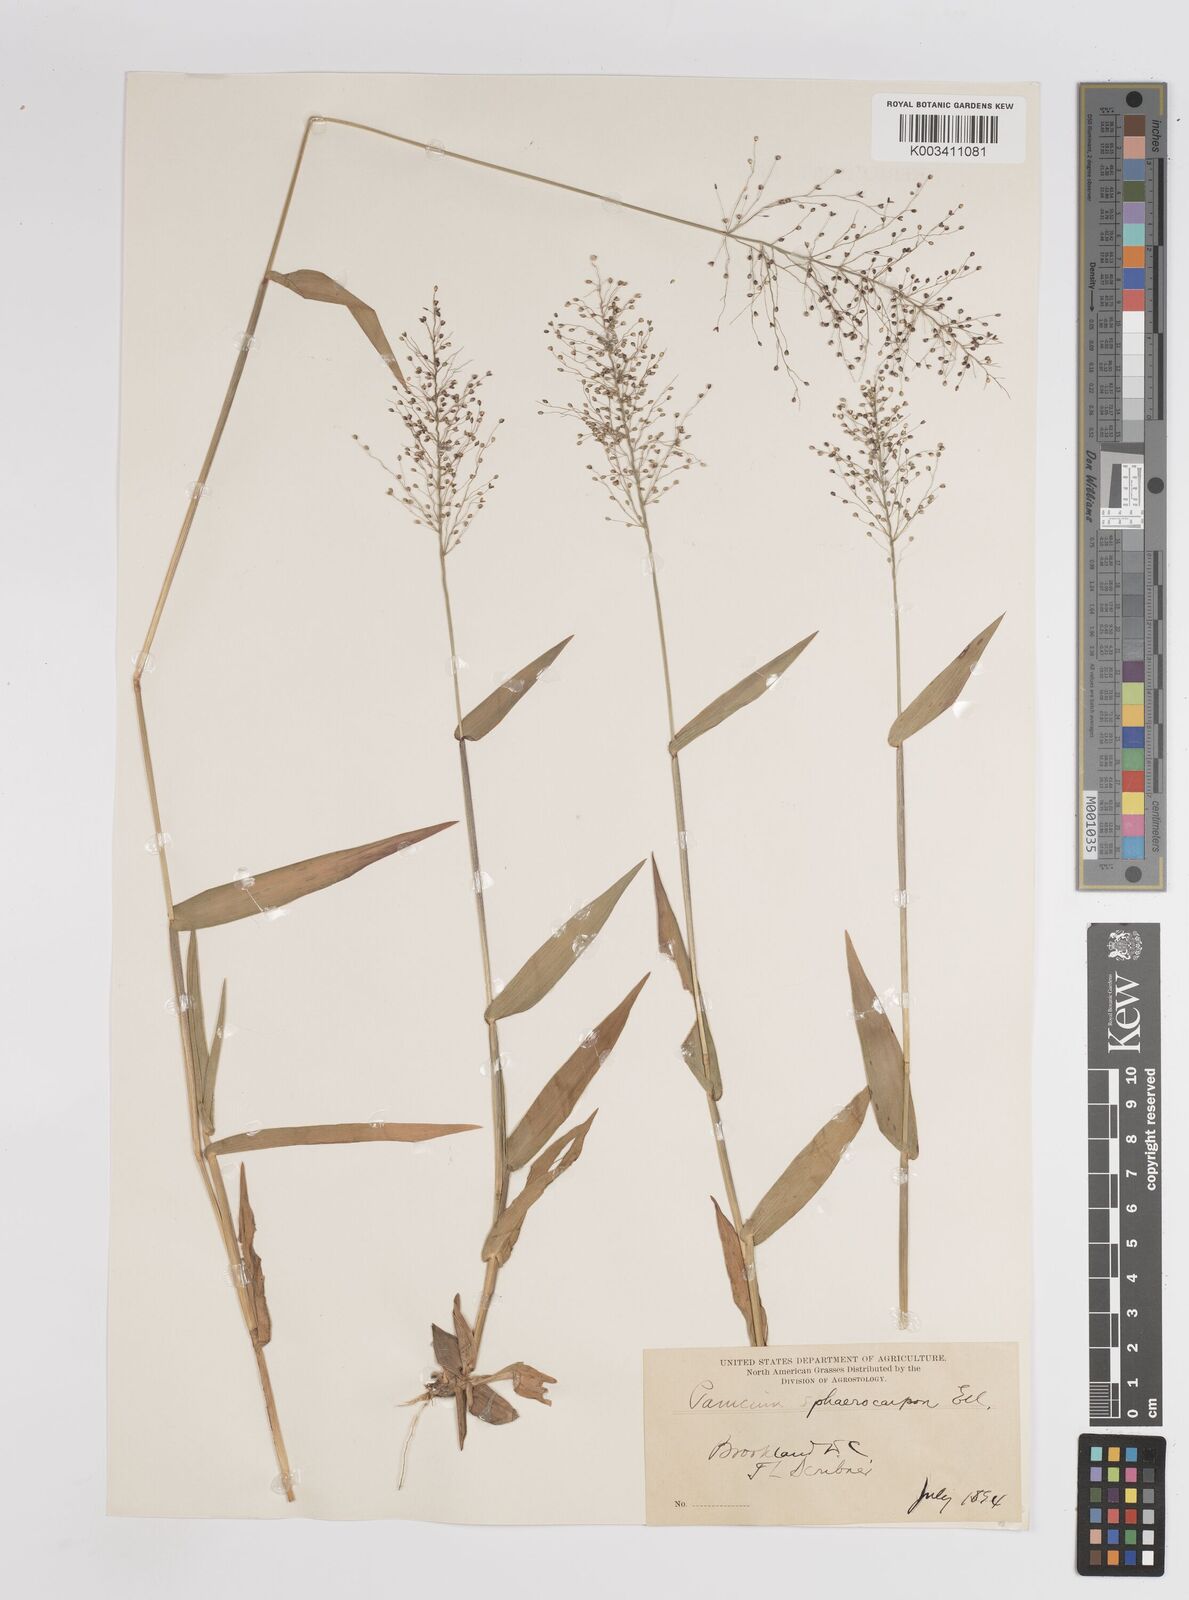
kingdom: Plantae
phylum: Tracheophyta
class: Liliopsida
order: Poales
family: Poaceae
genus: Dichanthelium
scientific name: Dichanthelium sphaerocarpon
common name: Round-fruited panicgrass
